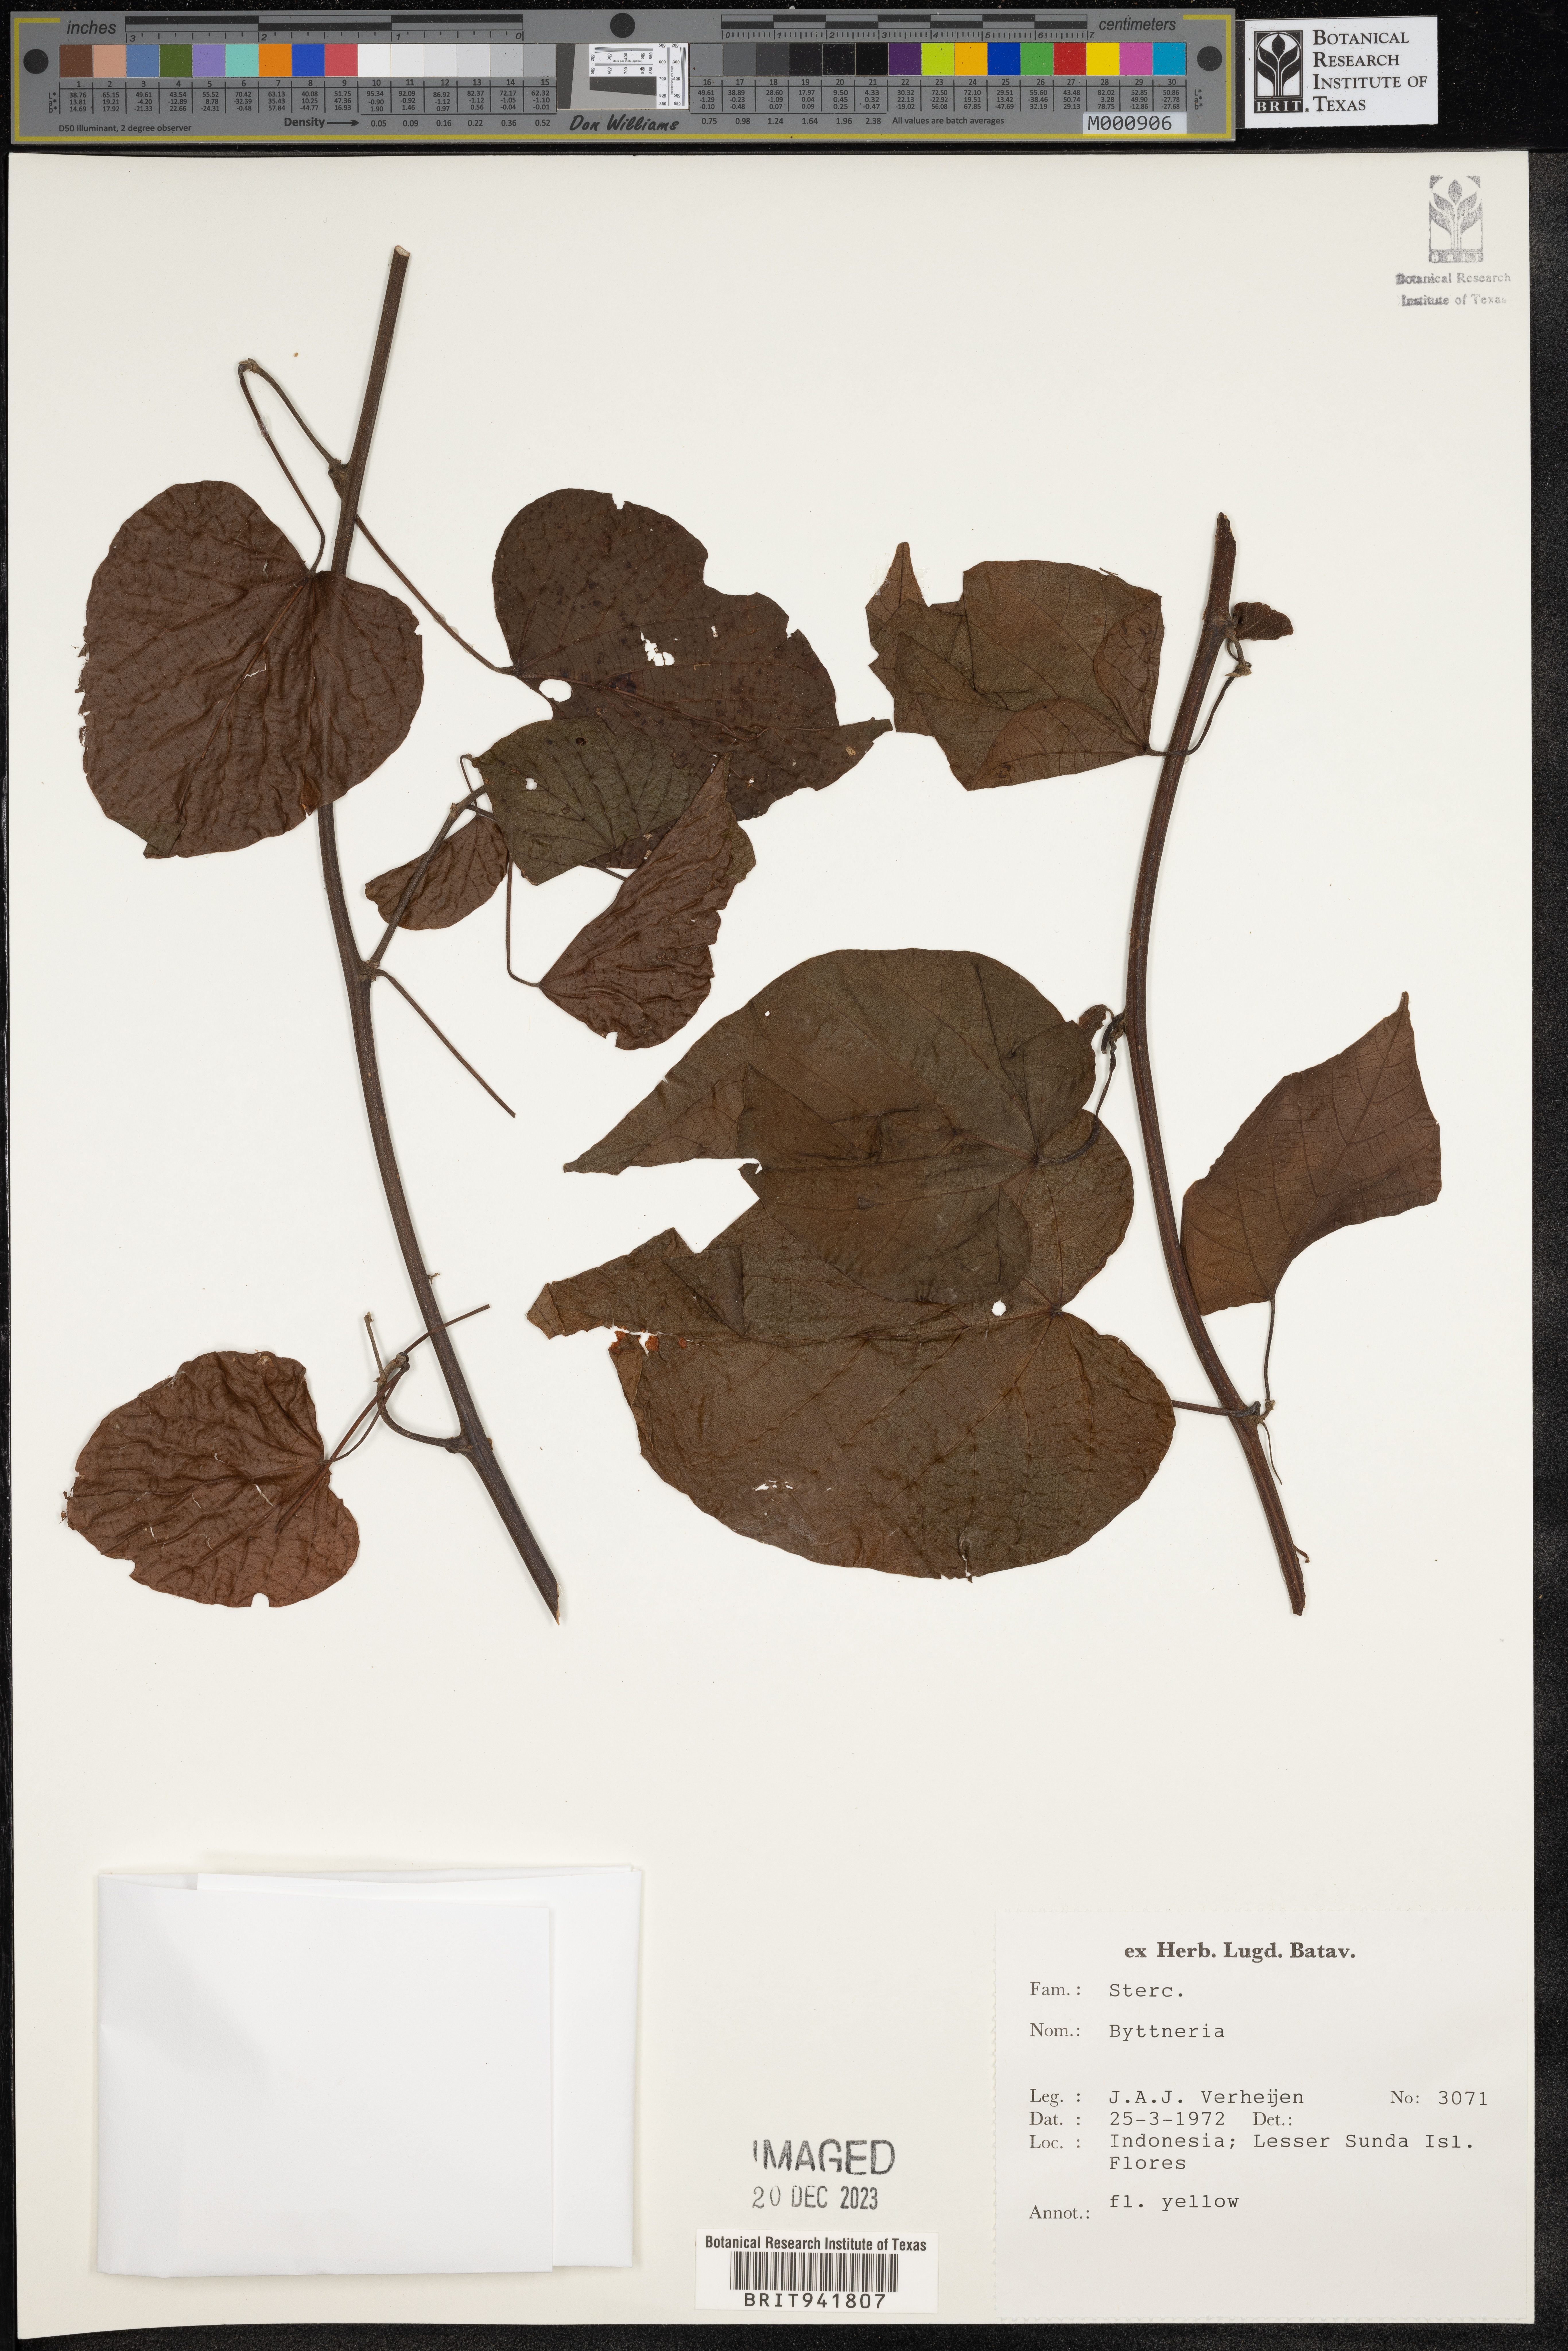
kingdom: Plantae
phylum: Tracheophyta
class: Magnoliopsida
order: Malvales
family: Malvaceae
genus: Byttneria
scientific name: Byttneria
